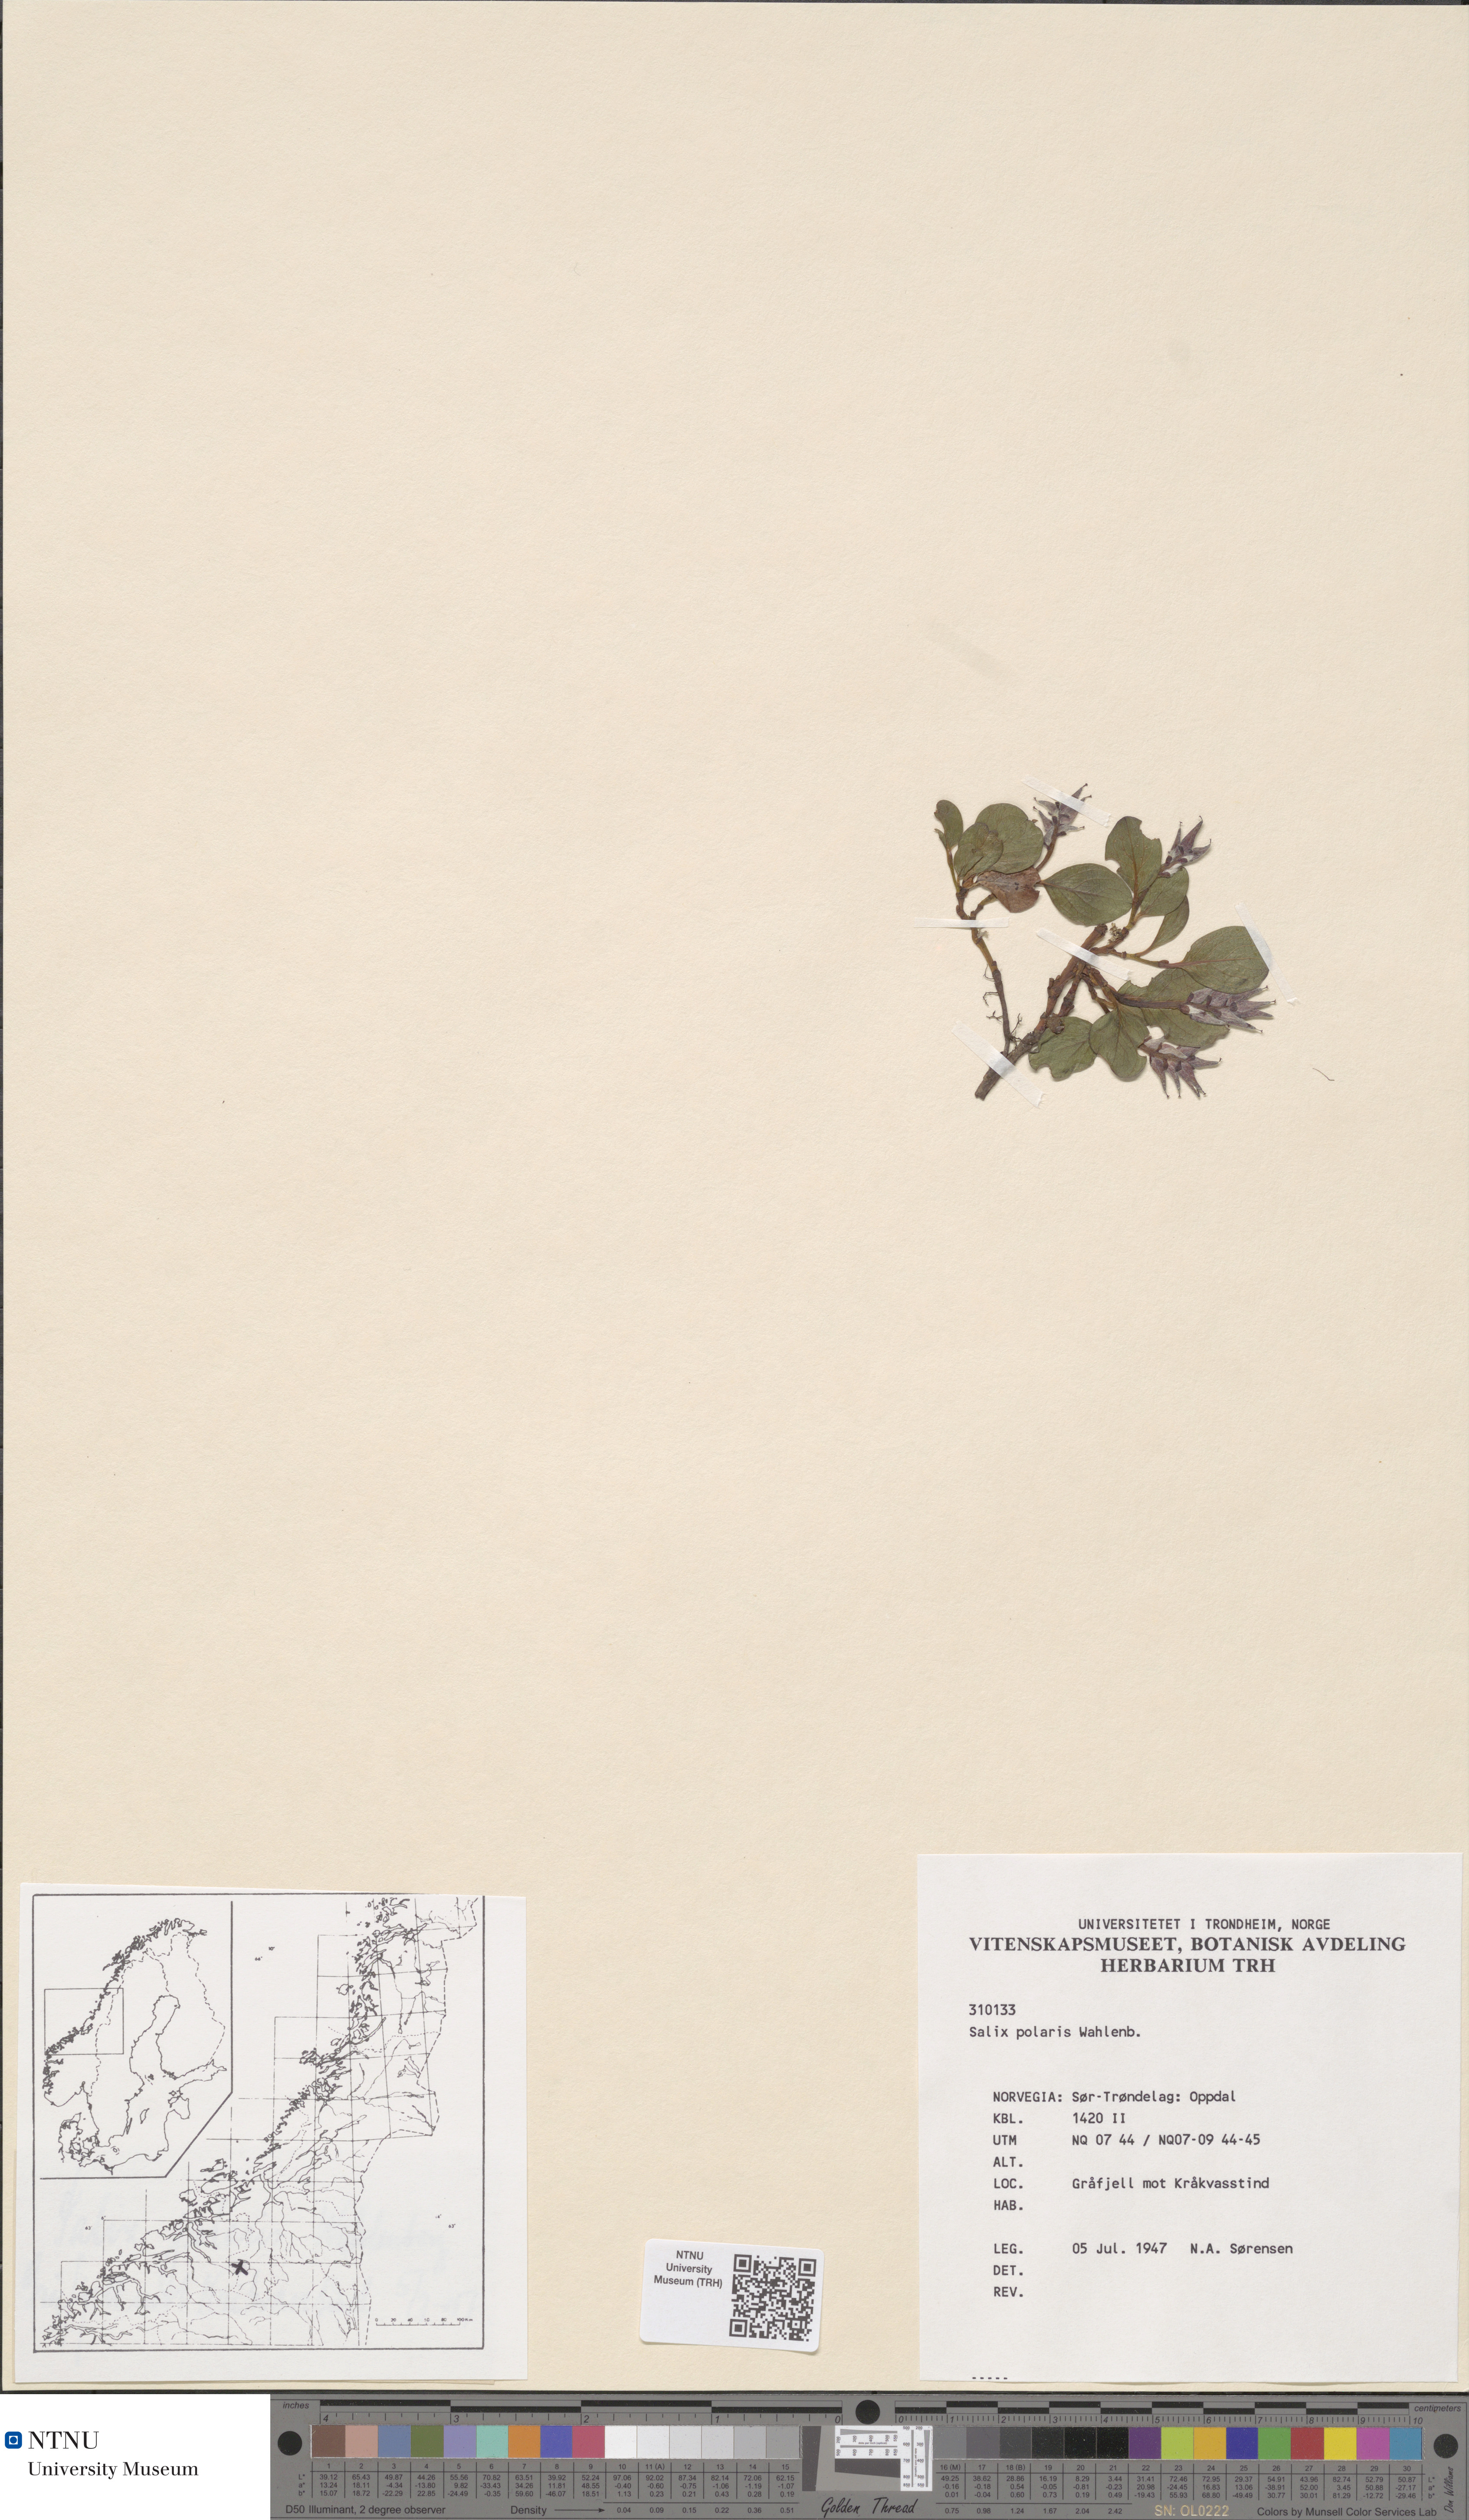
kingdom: Plantae
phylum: Tracheophyta
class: Magnoliopsida
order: Malpighiales
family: Salicaceae
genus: Salix
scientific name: Salix polaris
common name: Polar willow
